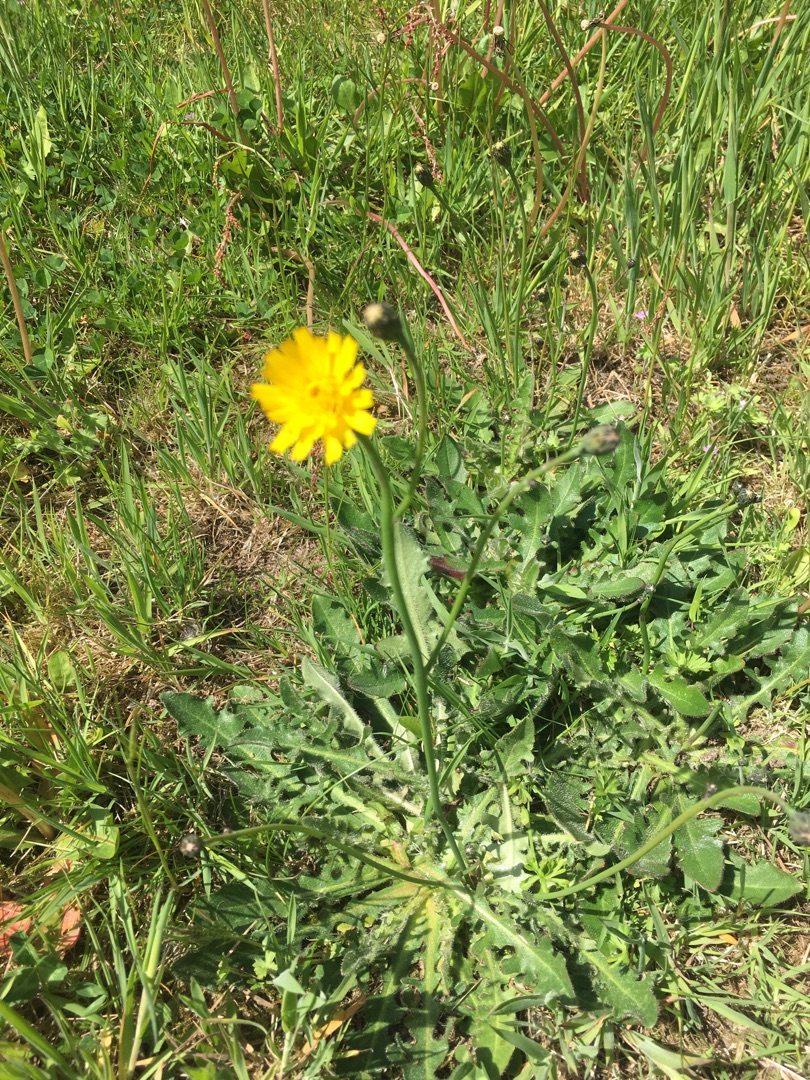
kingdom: Plantae
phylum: Tracheophyta
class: Magnoliopsida
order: Asterales
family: Asteraceae
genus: Hypochaeris
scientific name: Hypochaeris radicata
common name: Almindelig kongepen
